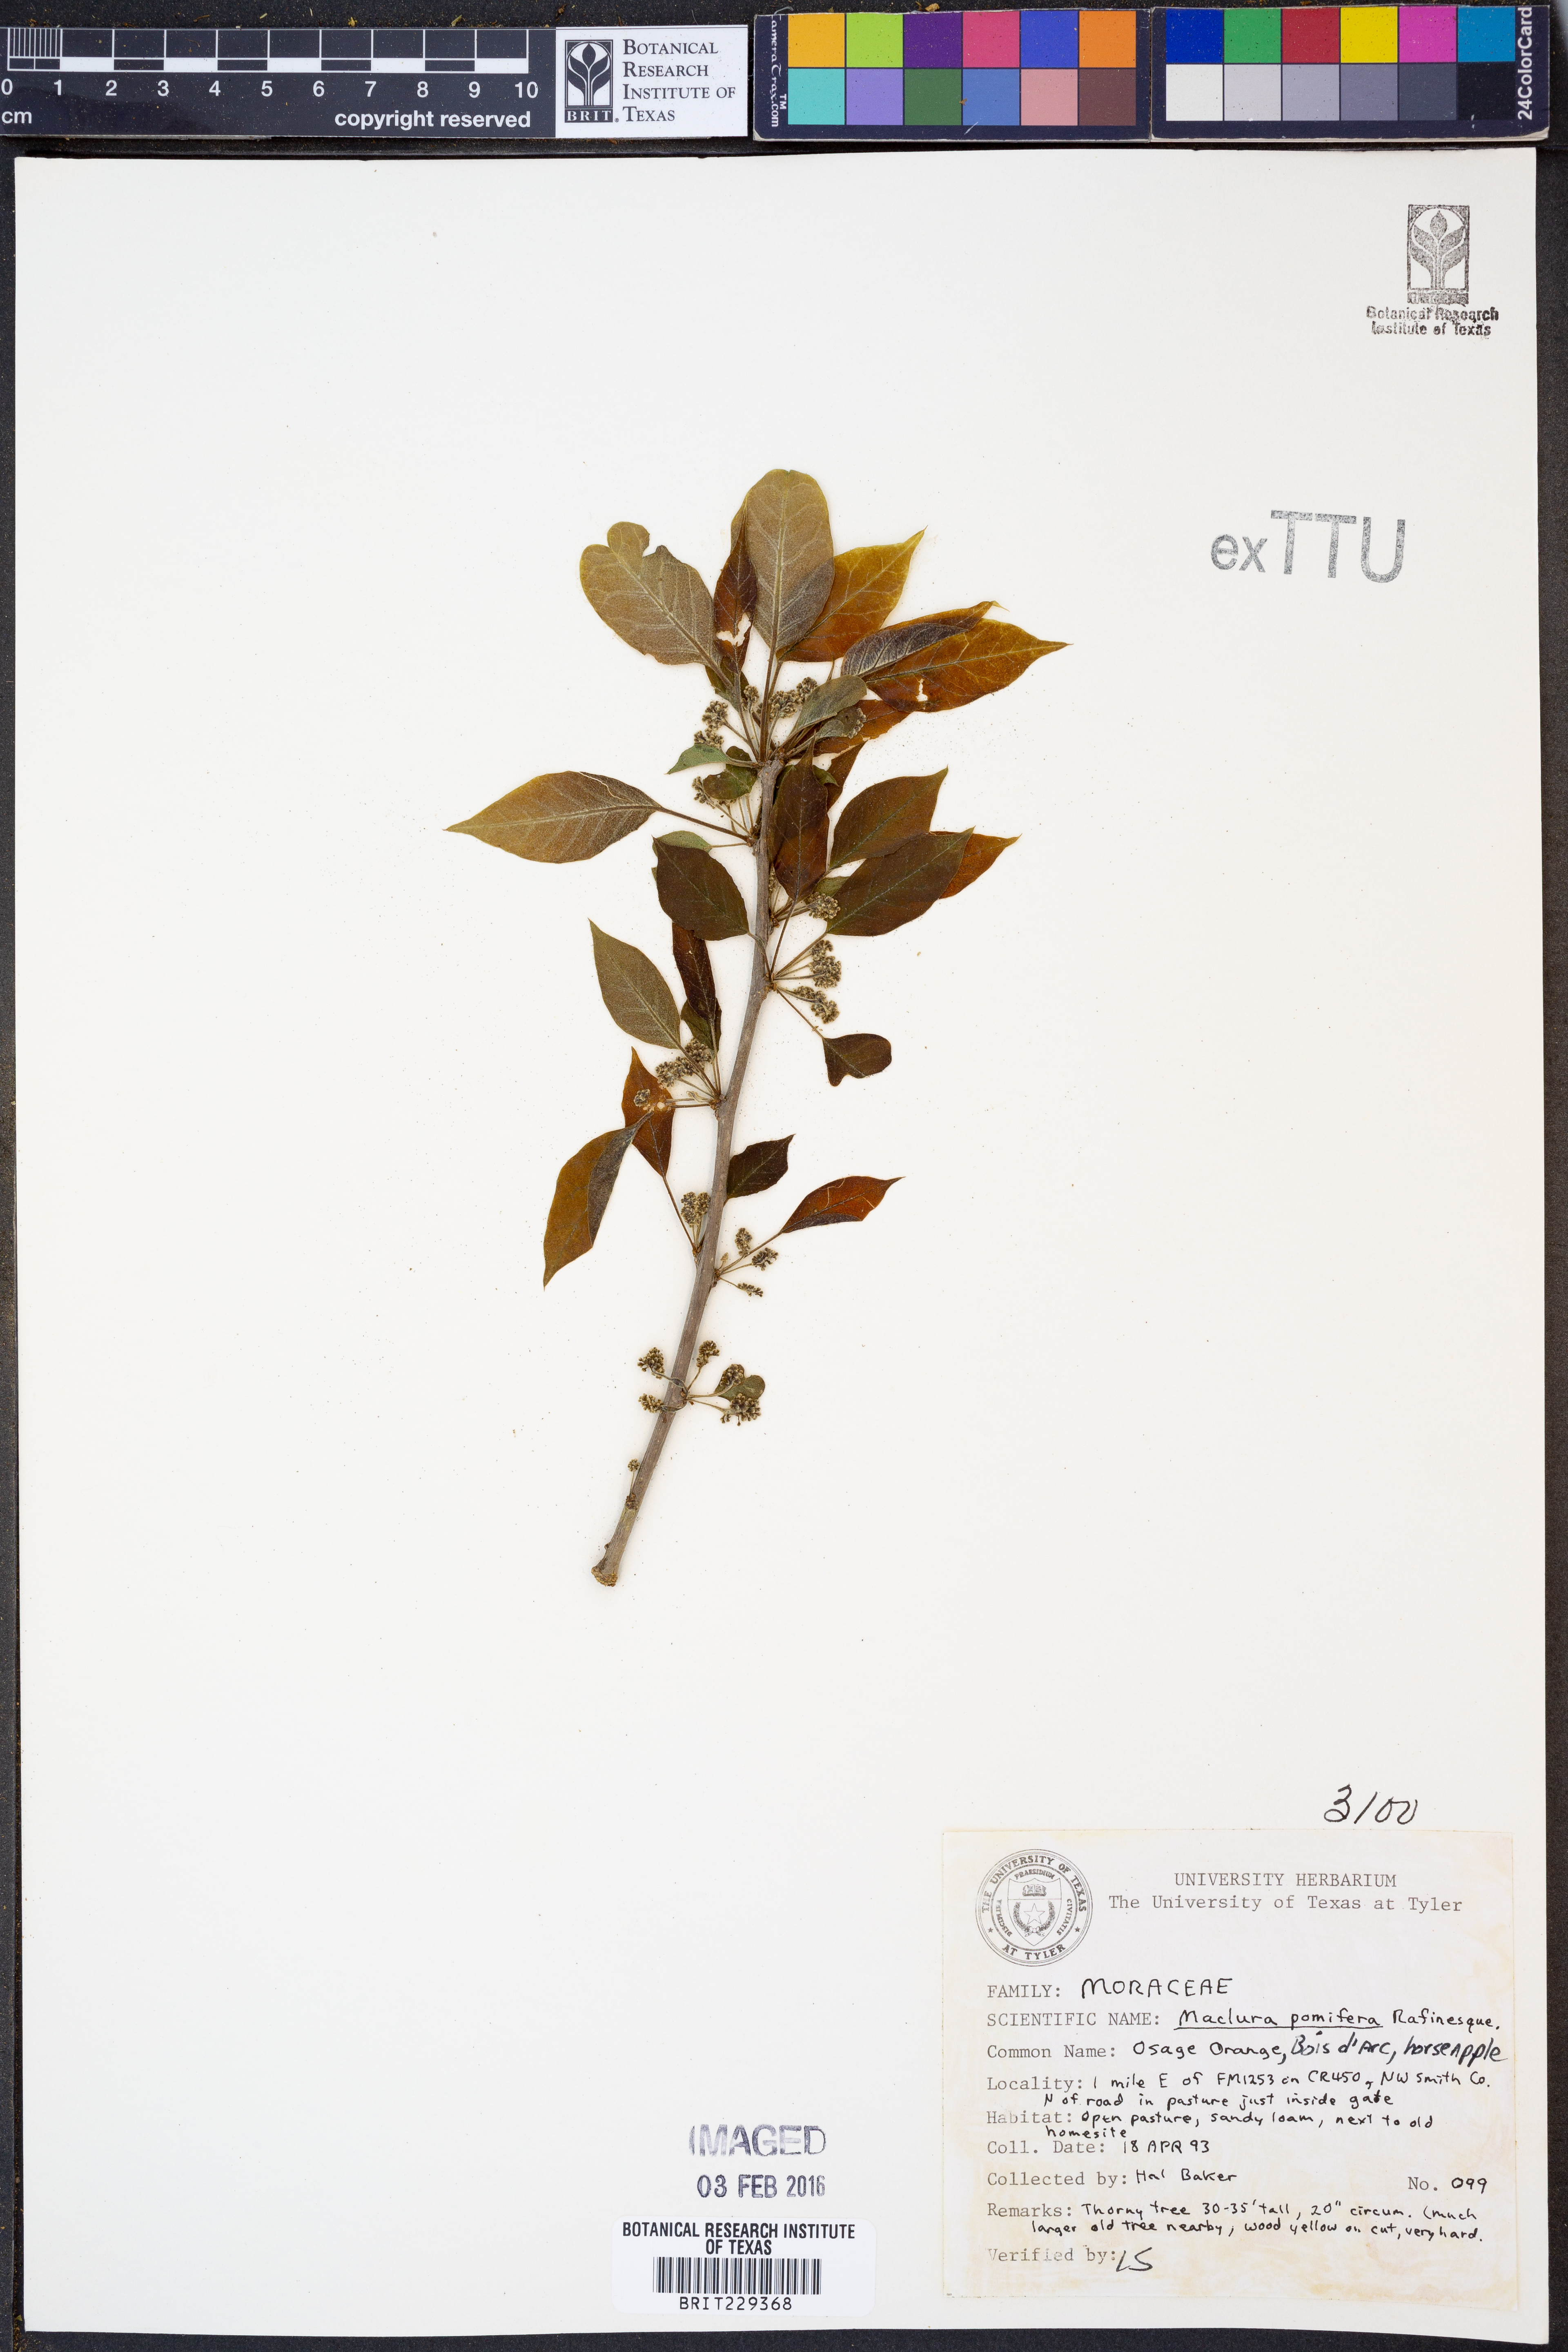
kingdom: Plantae
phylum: Tracheophyta
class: Magnoliopsida
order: Rosales
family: Moraceae
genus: Maclura
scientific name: Maclura pomifera
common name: Osage-orange
